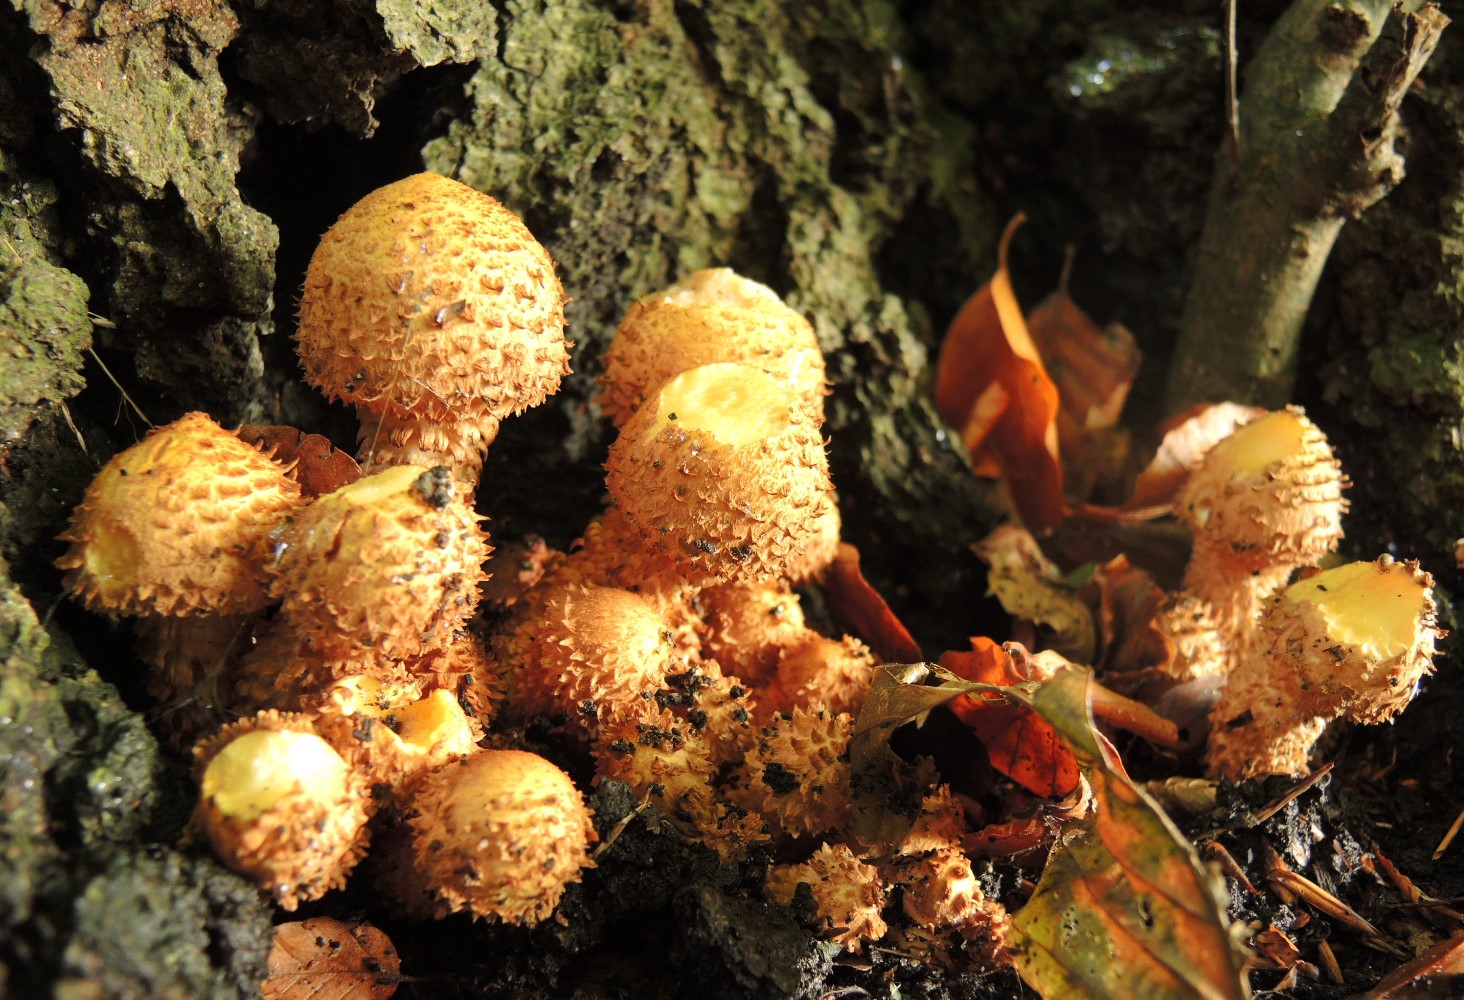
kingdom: Fungi
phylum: Basidiomycota
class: Agaricomycetes
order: Agaricales
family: Strophariaceae
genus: Pholiota
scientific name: Pholiota squarrosa
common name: krumskællet skælhat
